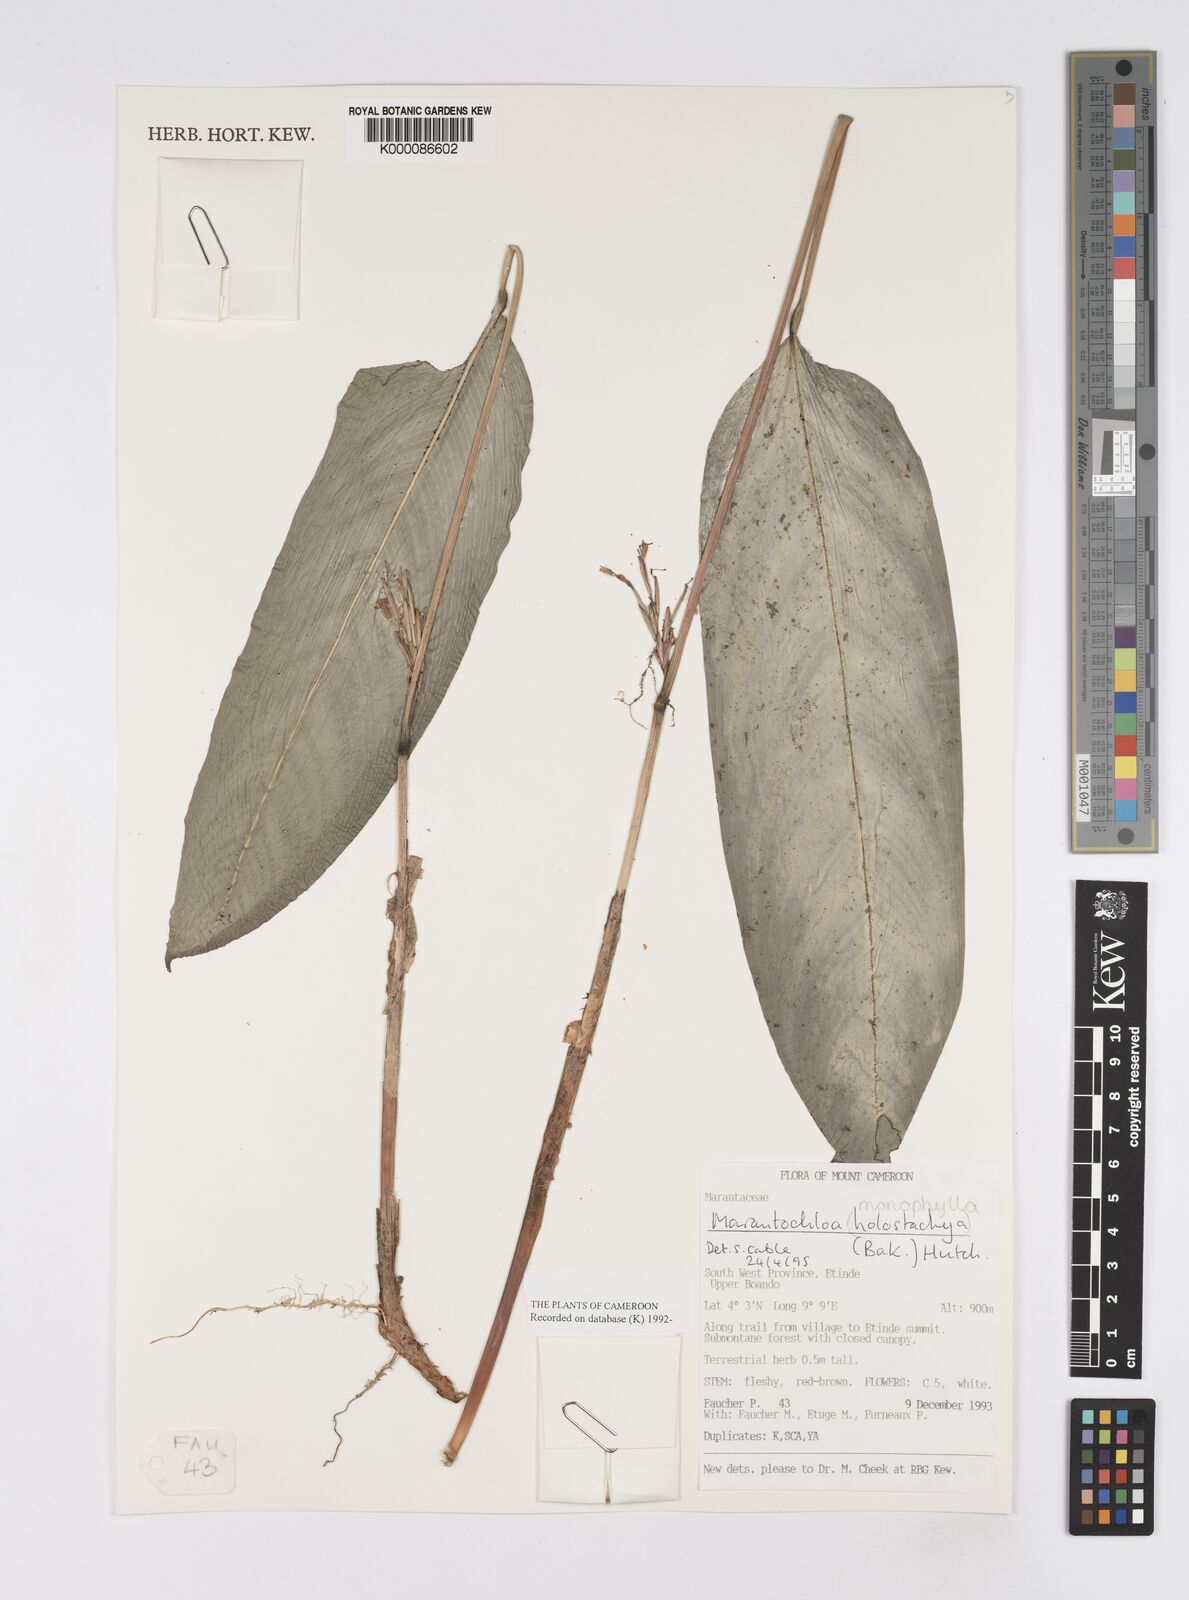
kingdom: Plantae
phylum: Tracheophyta
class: Liliopsida
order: Zingiberales
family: Marantaceae
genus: Marantochloa
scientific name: Marantochloa monophylla
